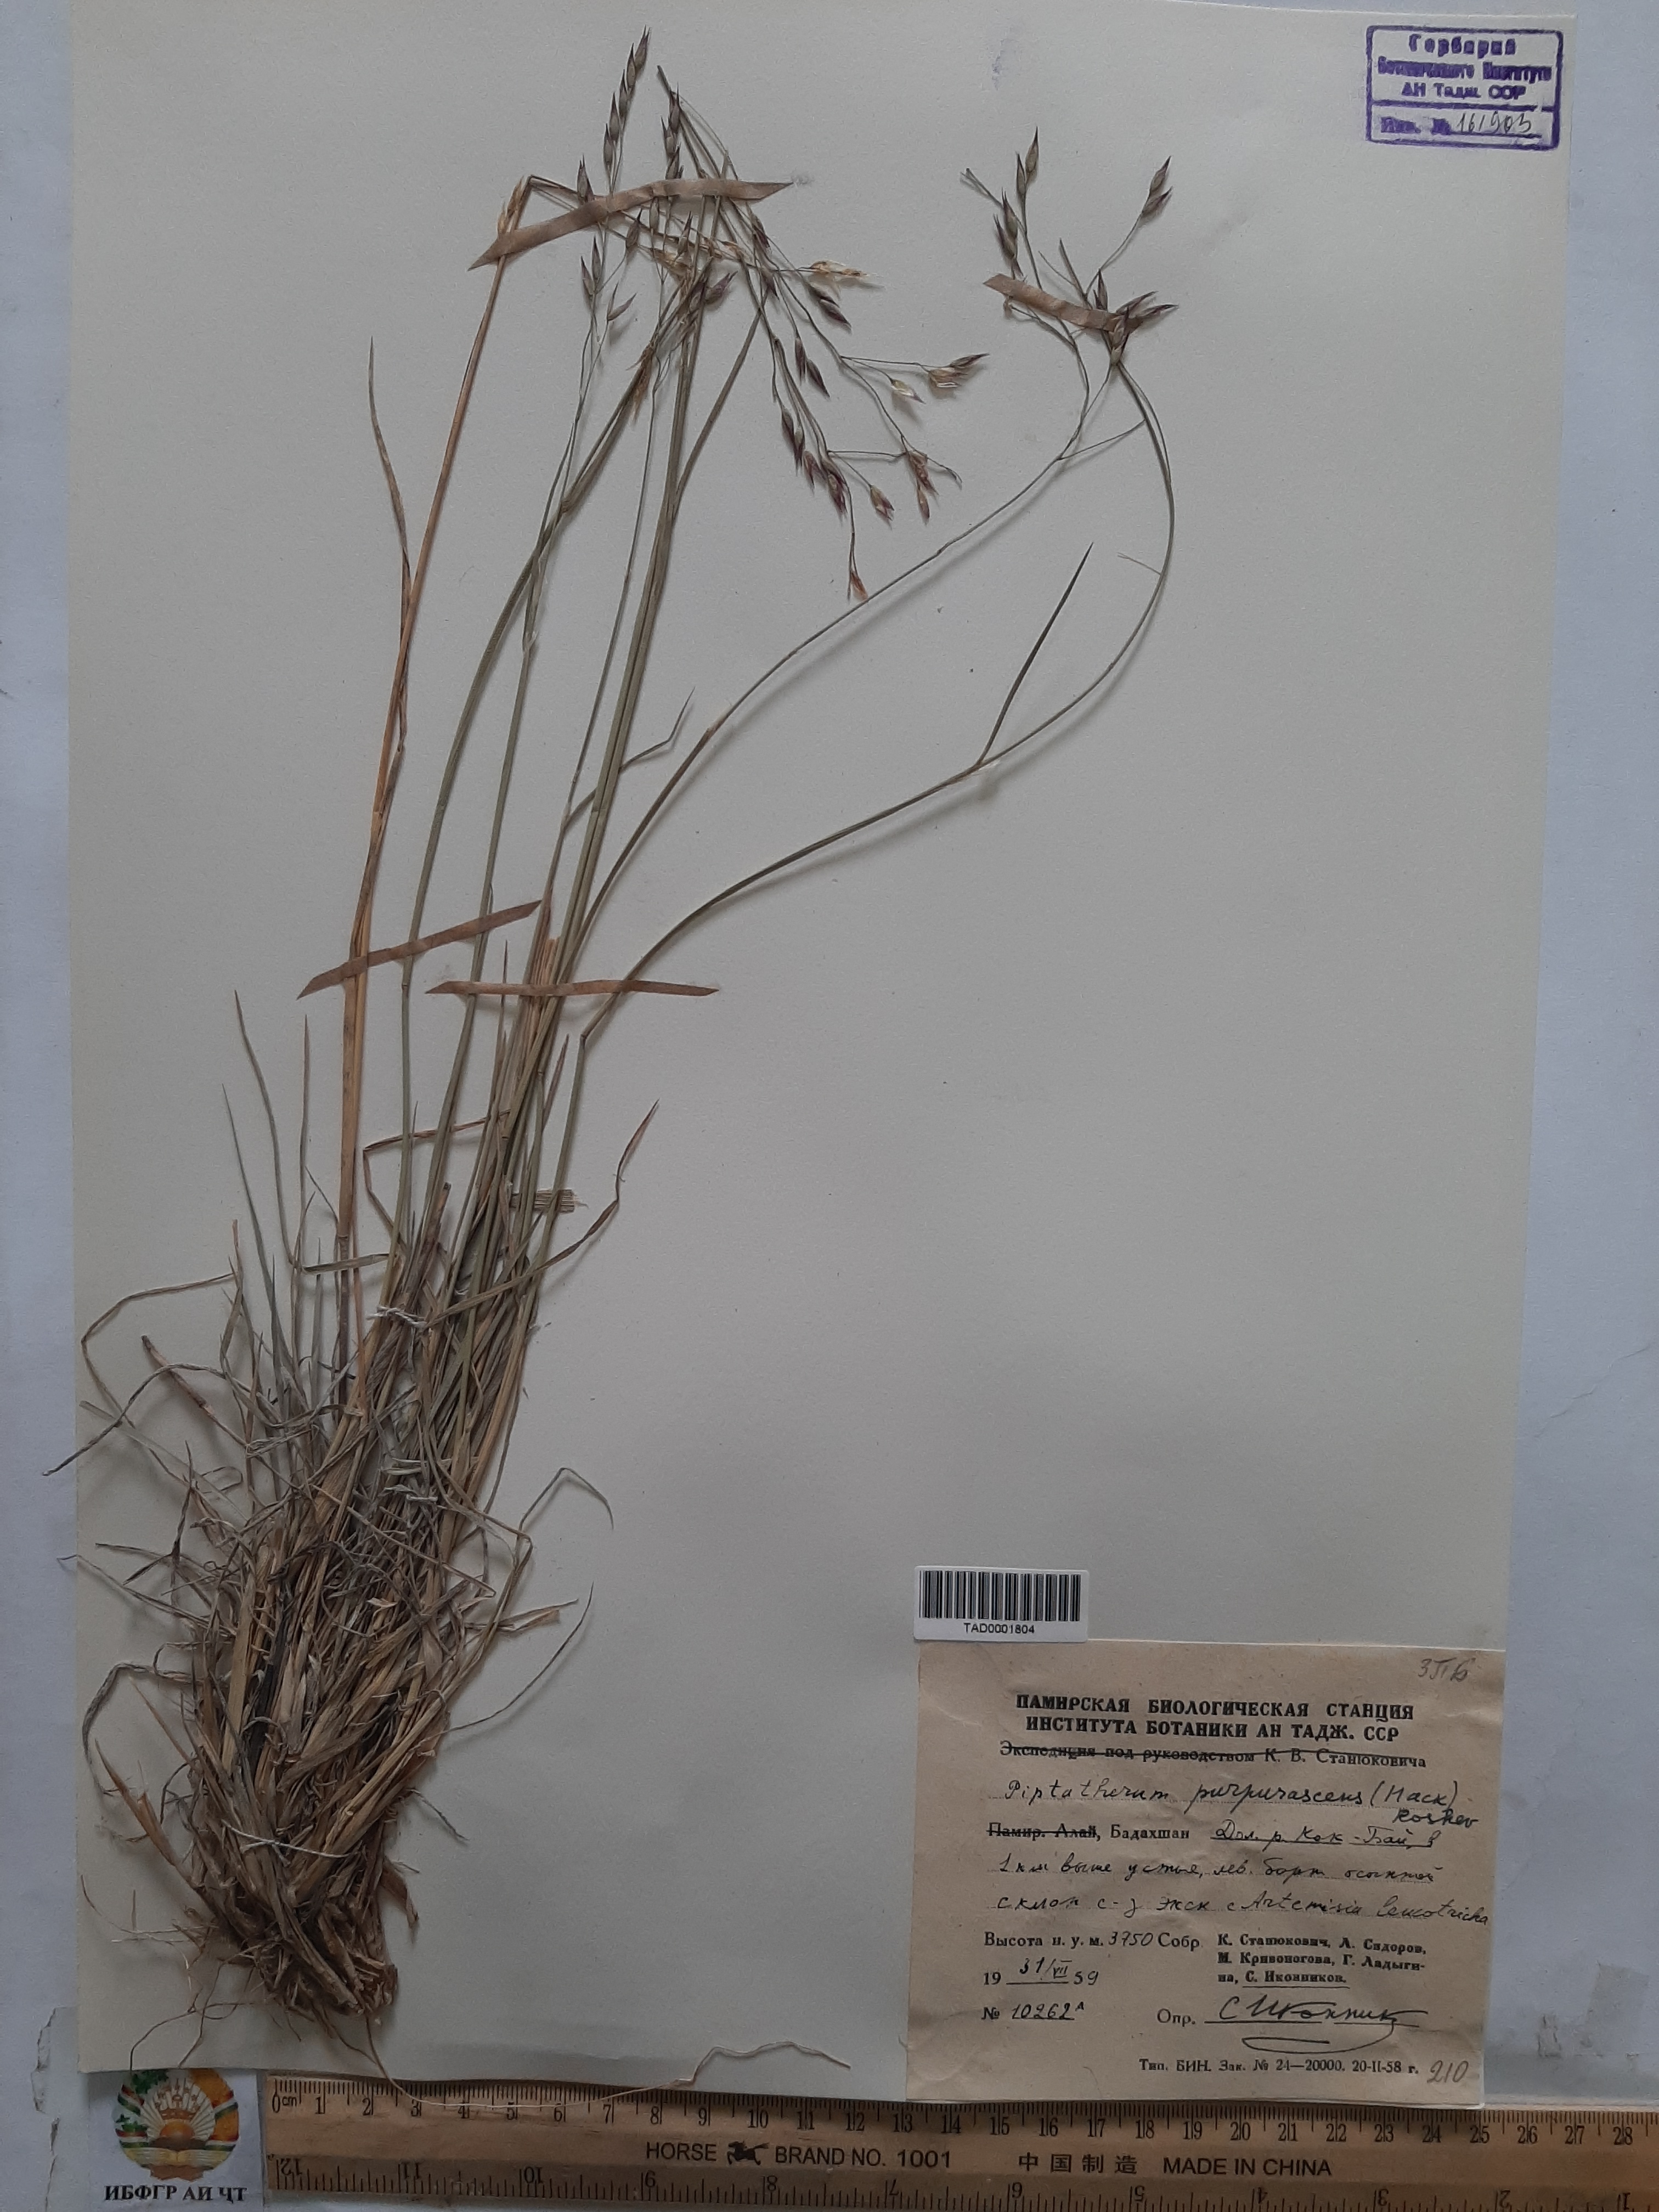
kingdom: Plantae
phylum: Tracheophyta
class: Liliopsida
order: Poales
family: Poaceae
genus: Piptatherum
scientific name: Piptatherum purpurascens
